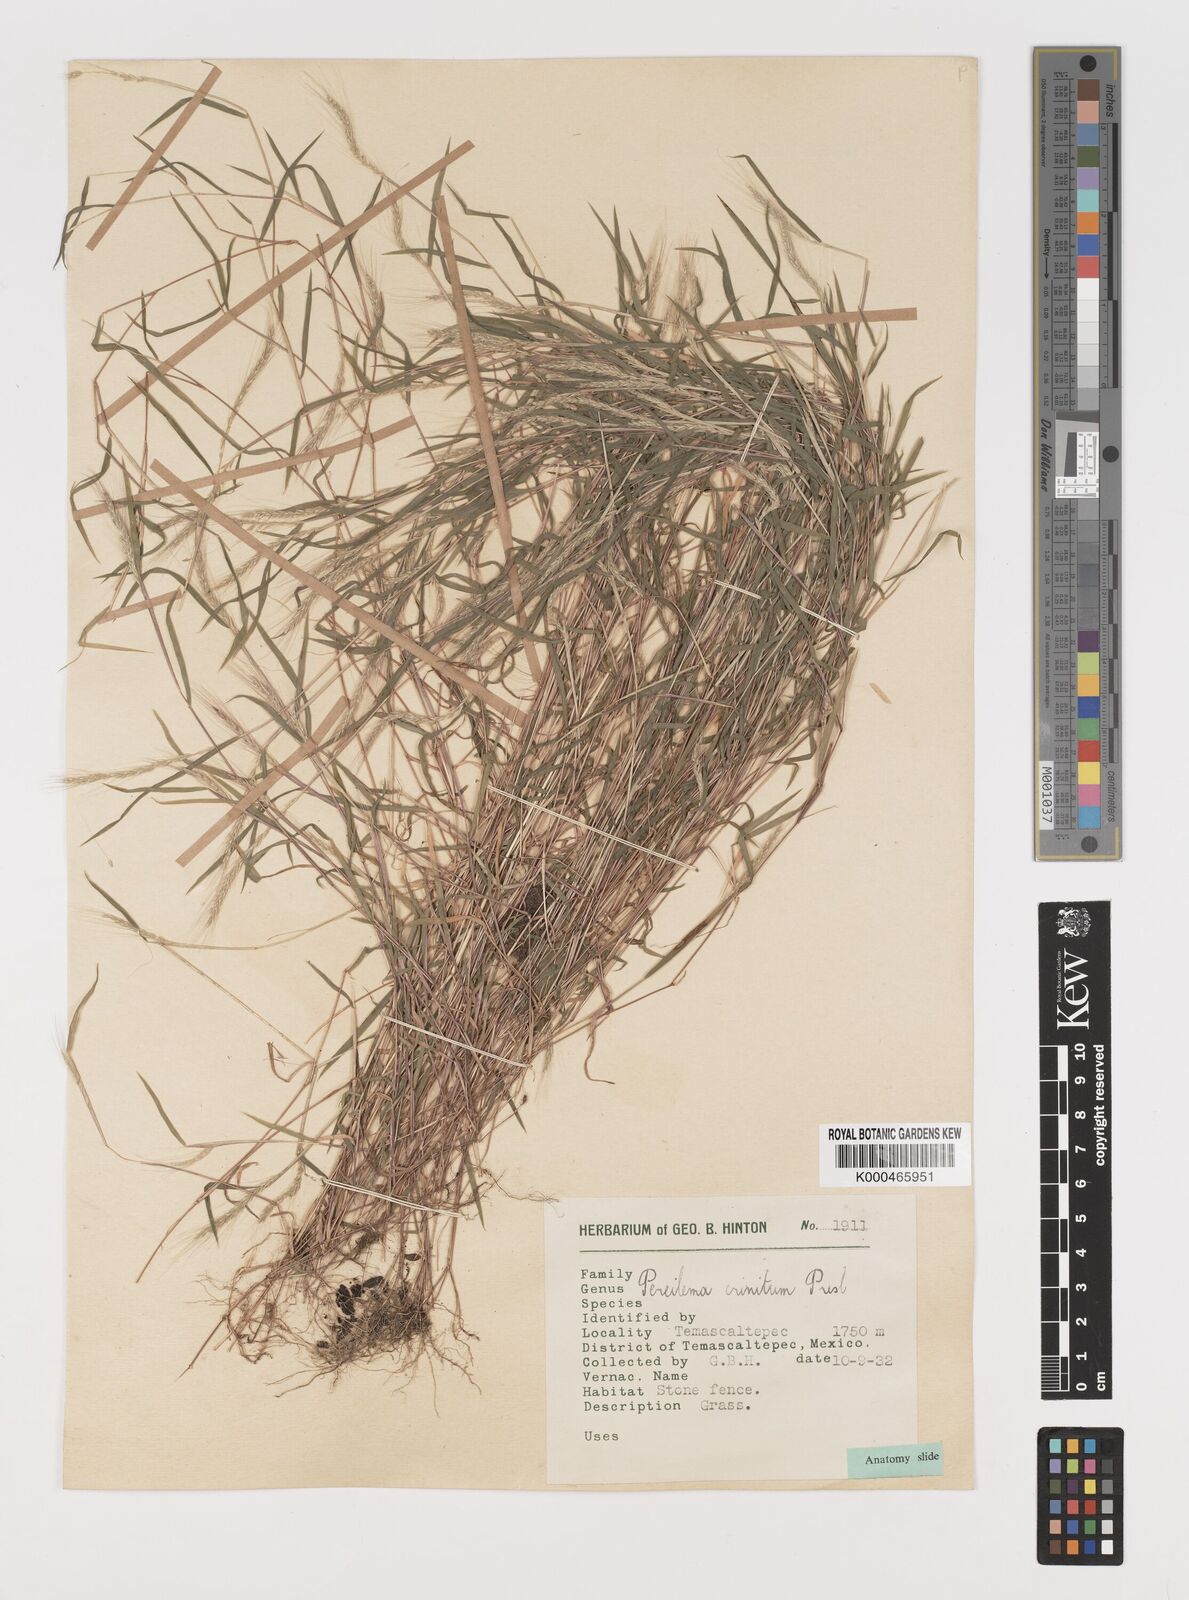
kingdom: Plantae
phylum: Tracheophyta
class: Liliopsida
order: Poales
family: Poaceae
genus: Muhlenbergia
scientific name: Muhlenbergia pereilema
